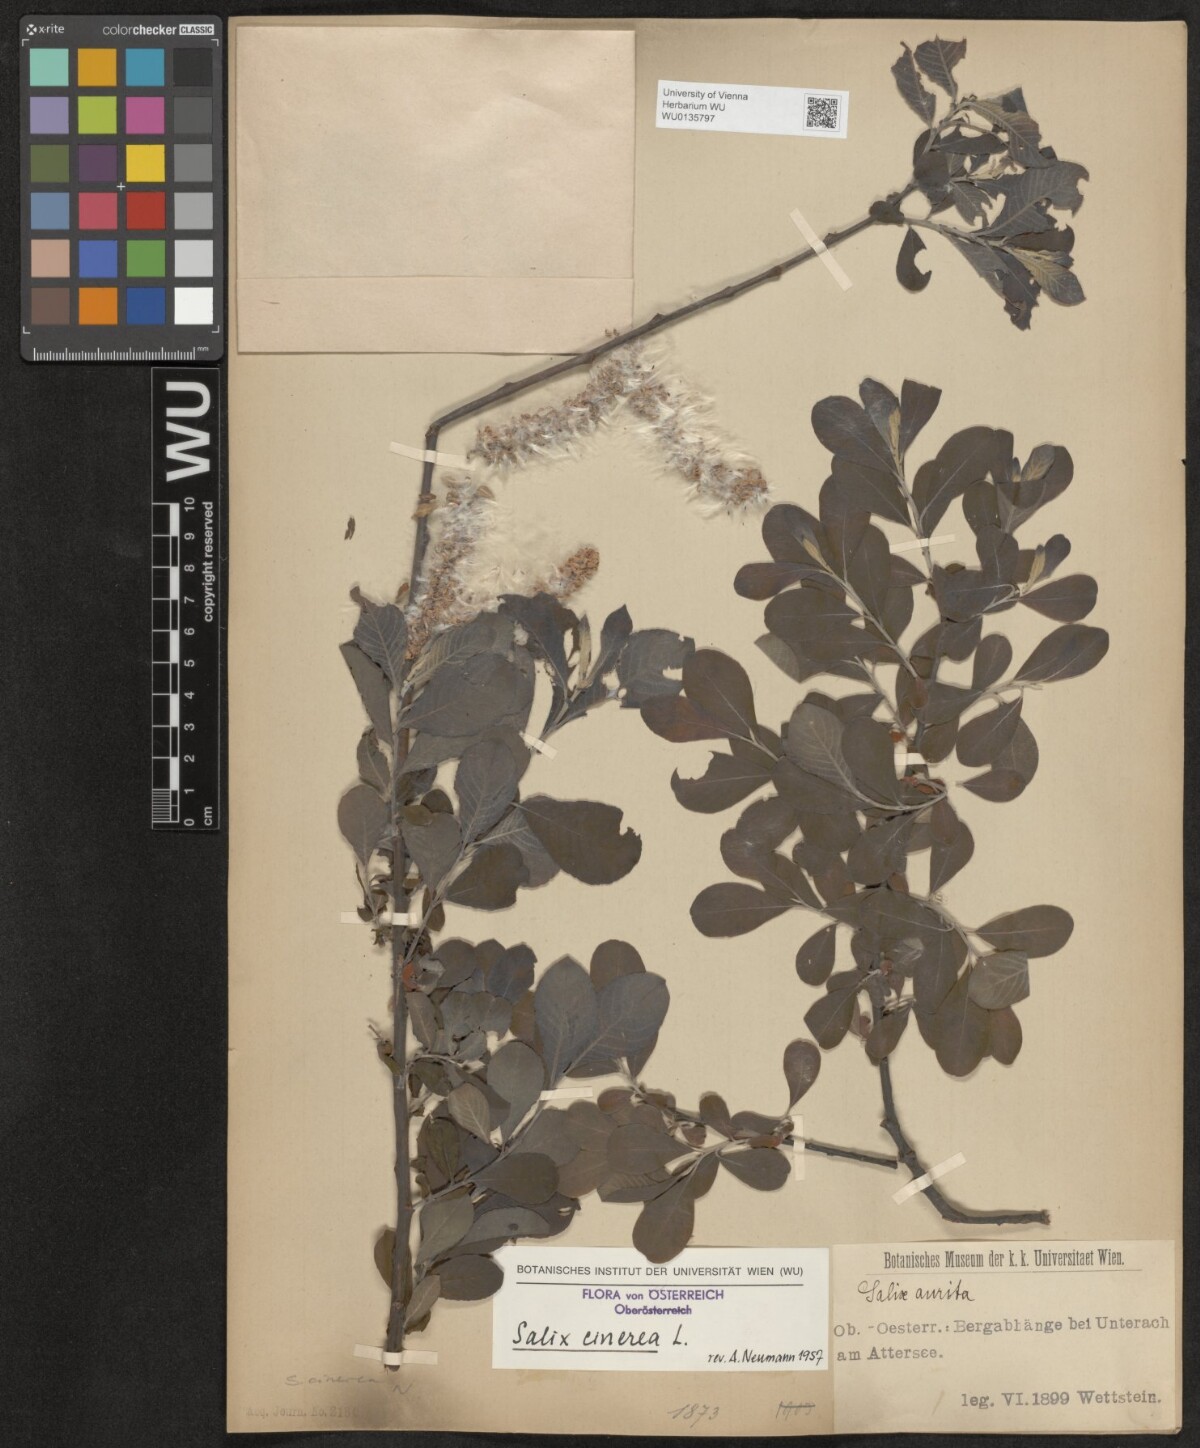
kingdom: Plantae
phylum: Tracheophyta
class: Magnoliopsida
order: Malpighiales
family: Salicaceae
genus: Salix
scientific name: Salix cinerea
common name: Common sallow
